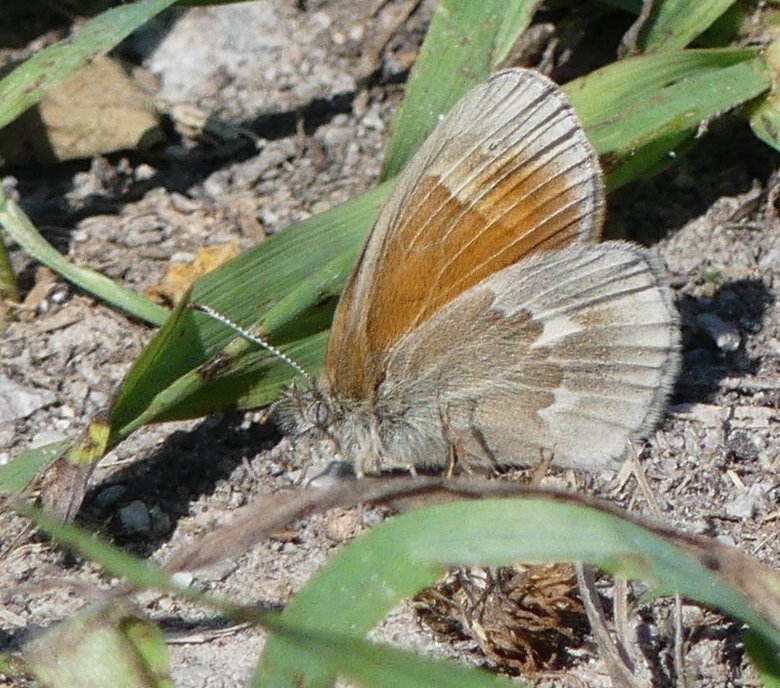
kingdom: Animalia
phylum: Arthropoda
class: Insecta
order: Lepidoptera
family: Nymphalidae
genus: Coenonympha
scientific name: Coenonympha tullia
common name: Large Heath
